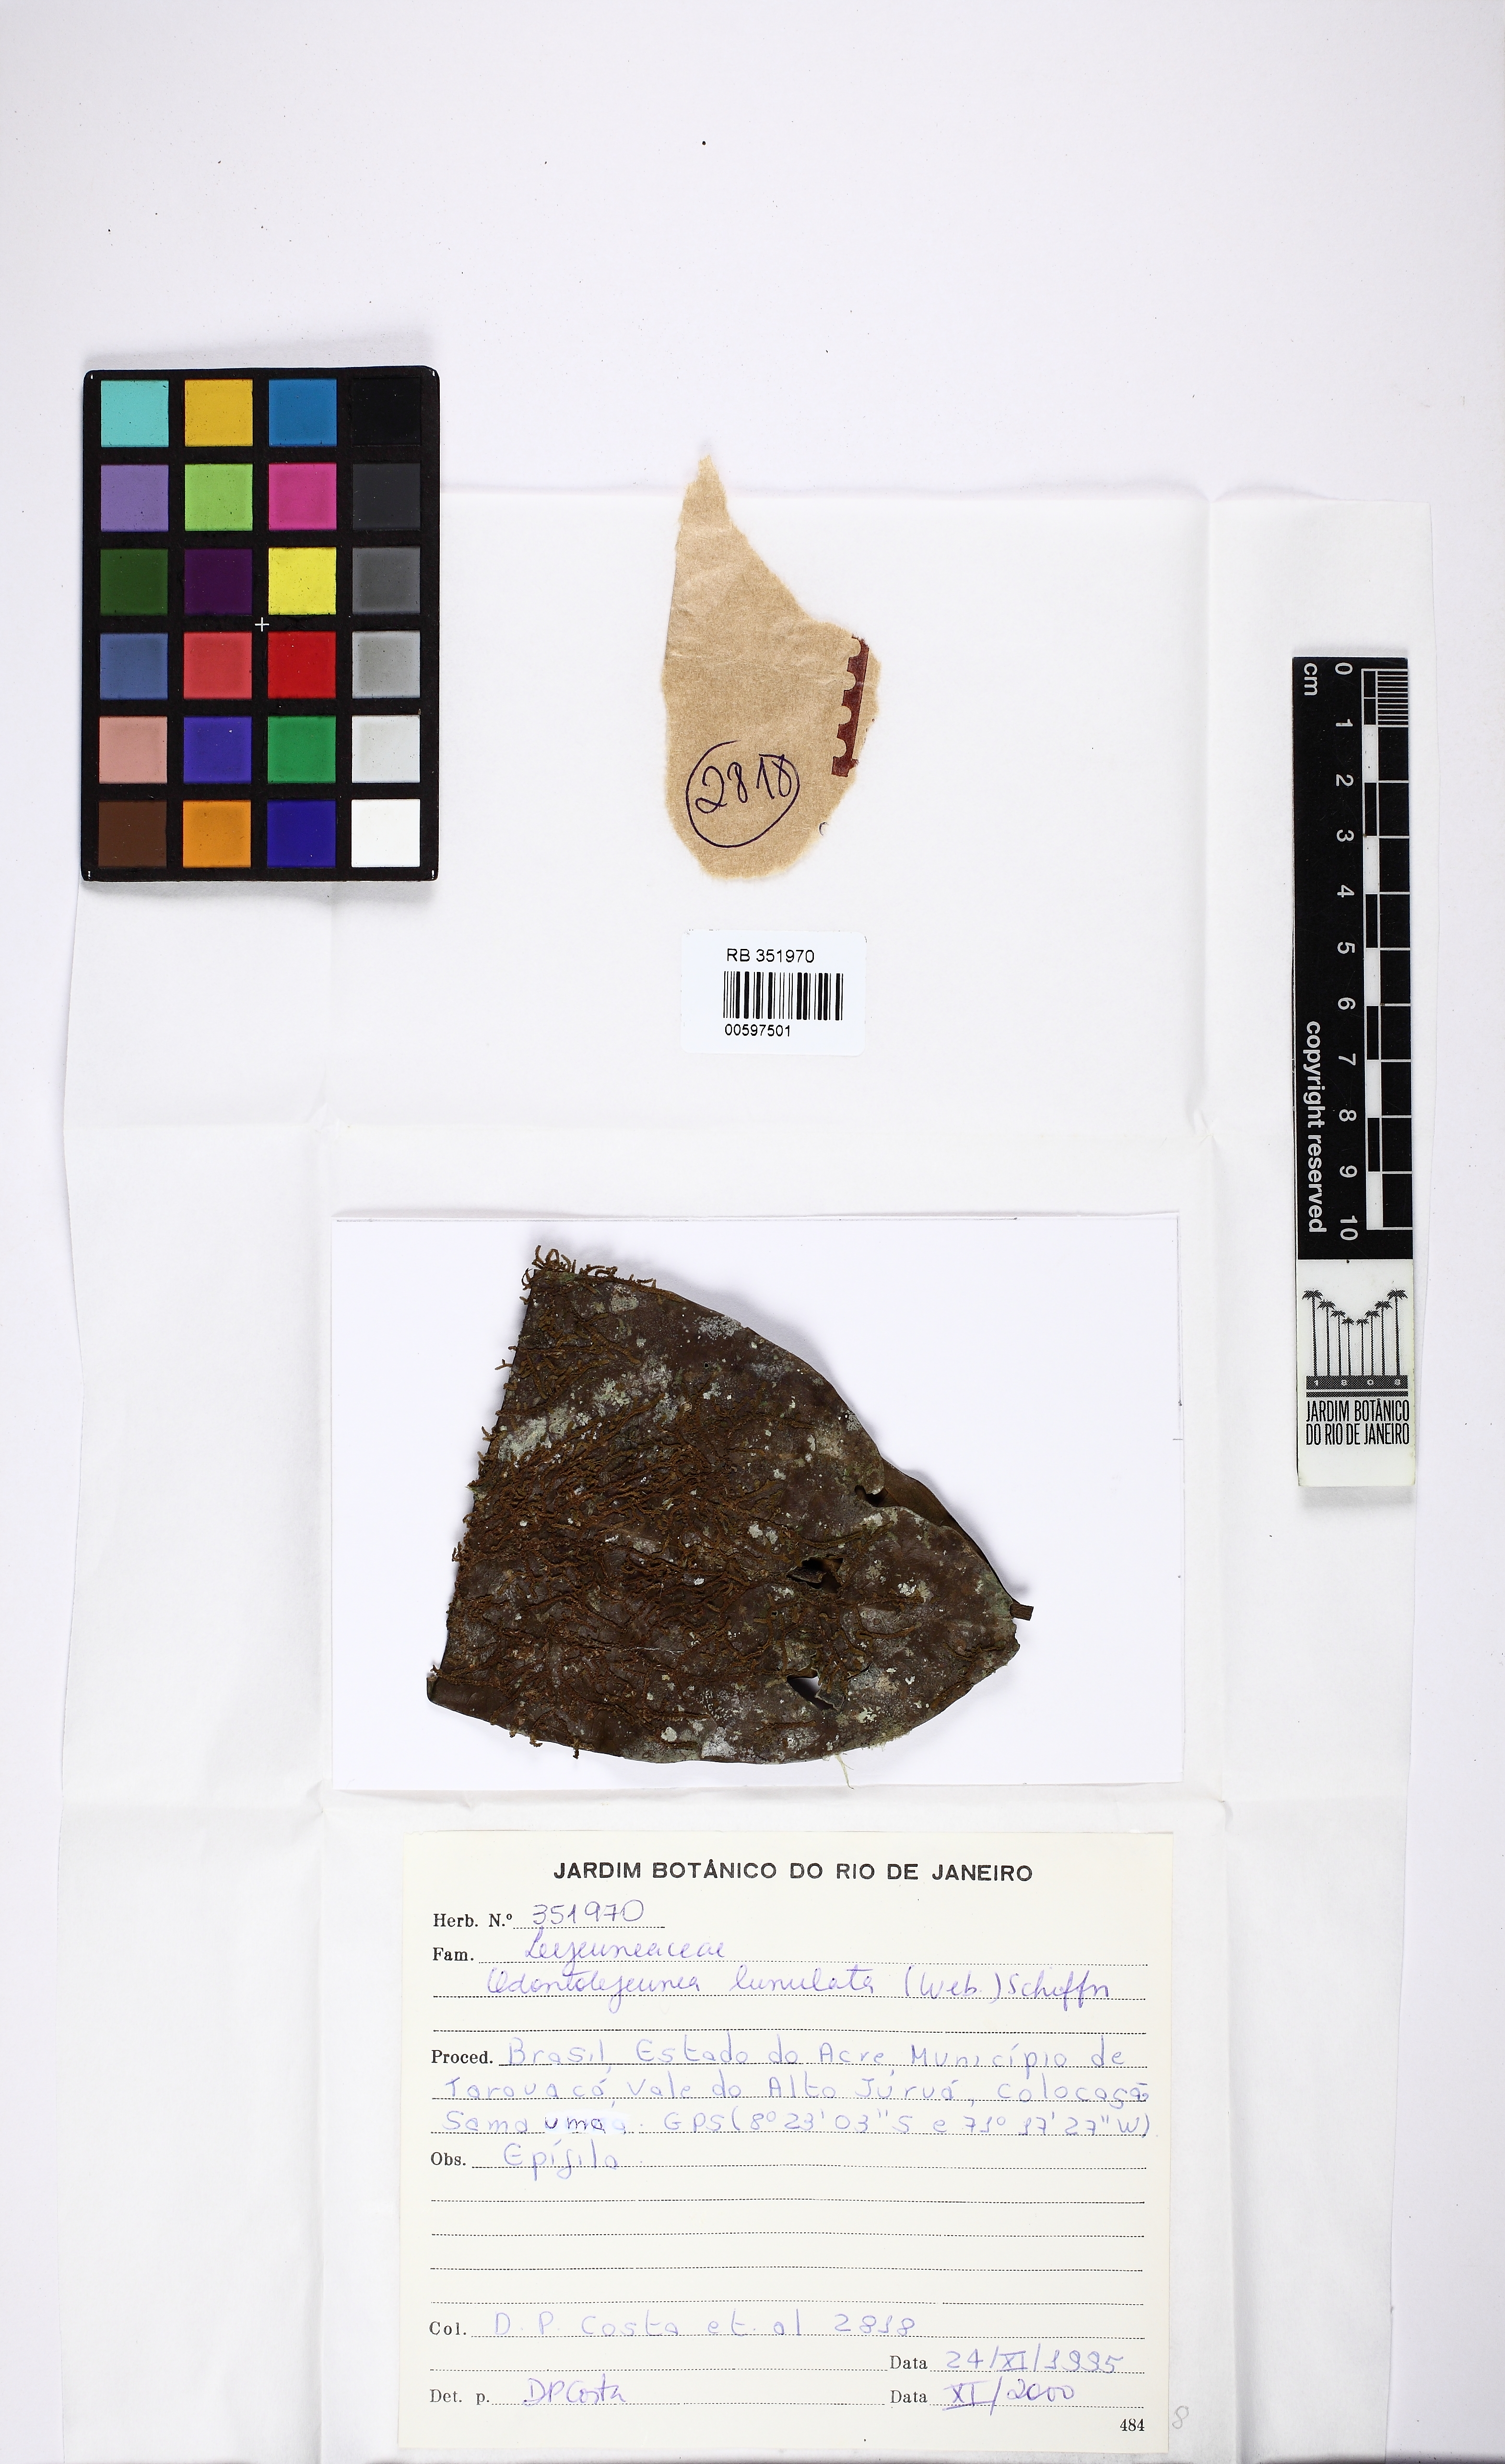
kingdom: Plantae
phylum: Marchantiophyta
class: Jungermanniopsida
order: Porellales
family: Lejeuneaceae
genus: Odontolejeunea
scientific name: Odontolejeunea lunulata
